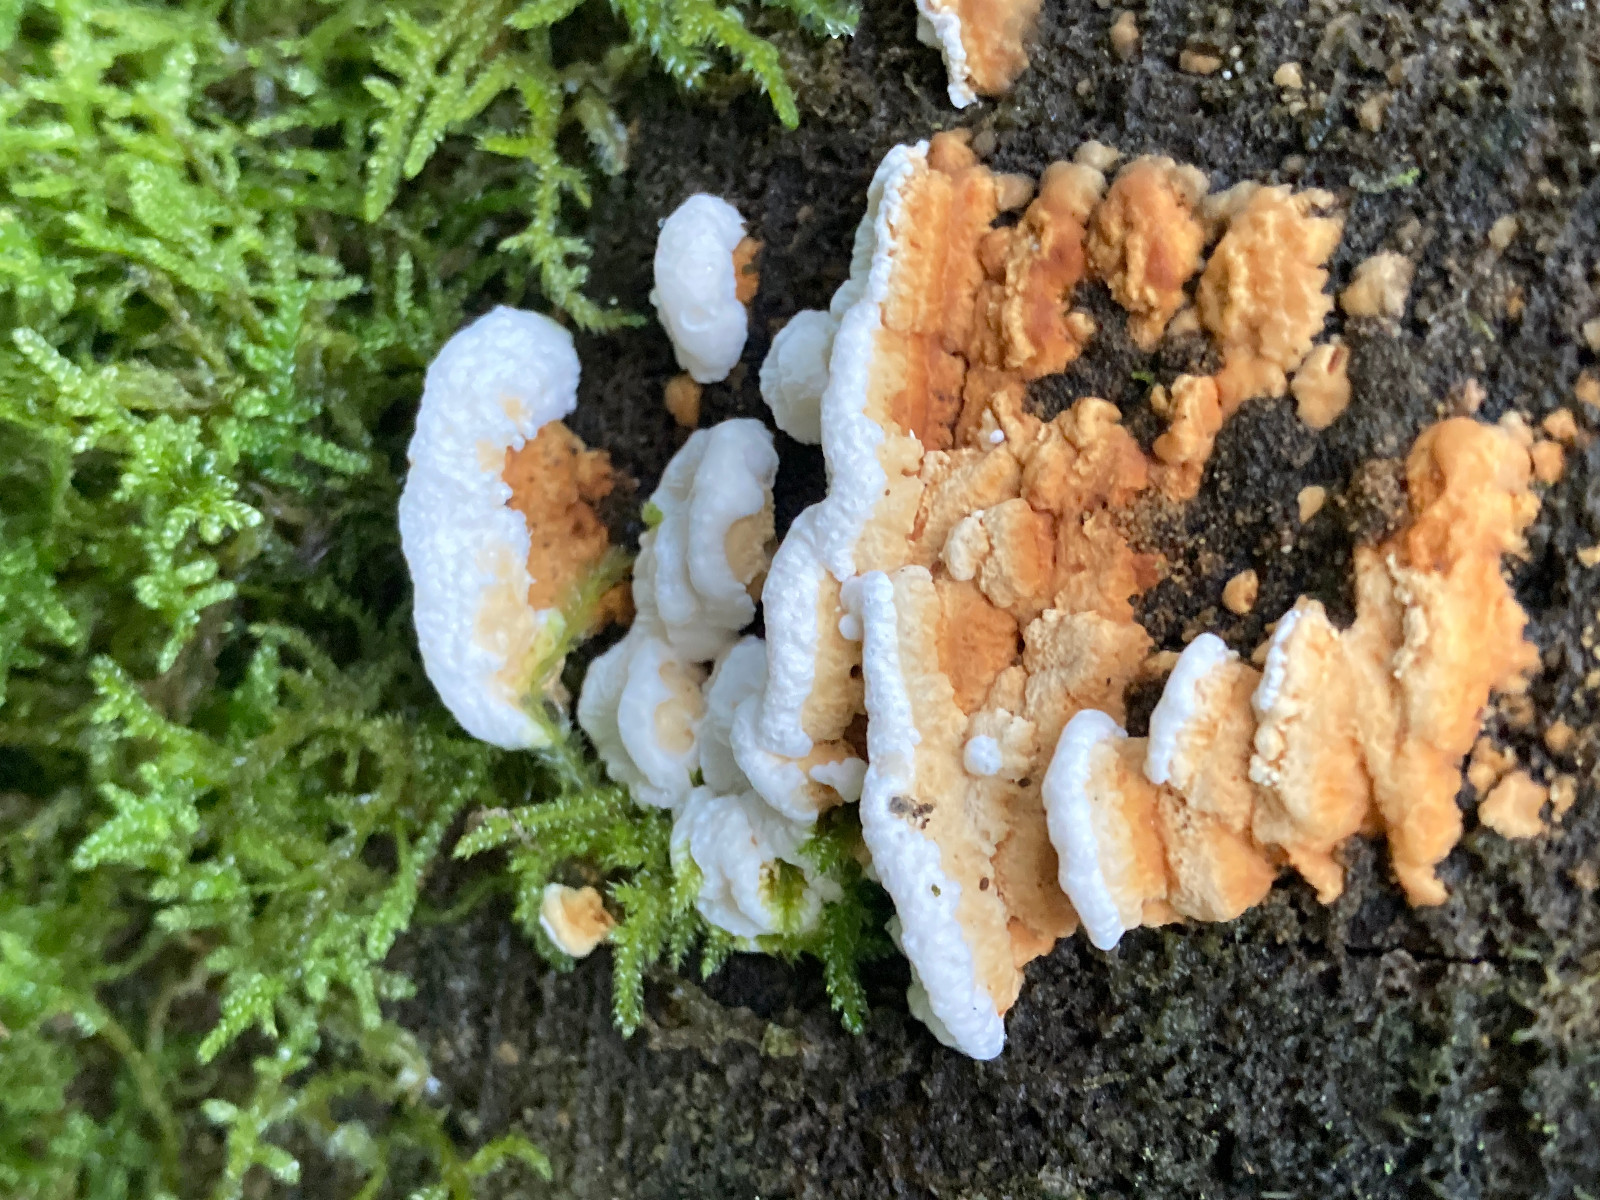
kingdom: Fungi
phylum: Basidiomycota
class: Agaricomycetes
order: Polyporales
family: Fomitopsidaceae
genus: Neoantrodia
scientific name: Neoantrodia serialis
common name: række-sejporesvamp
